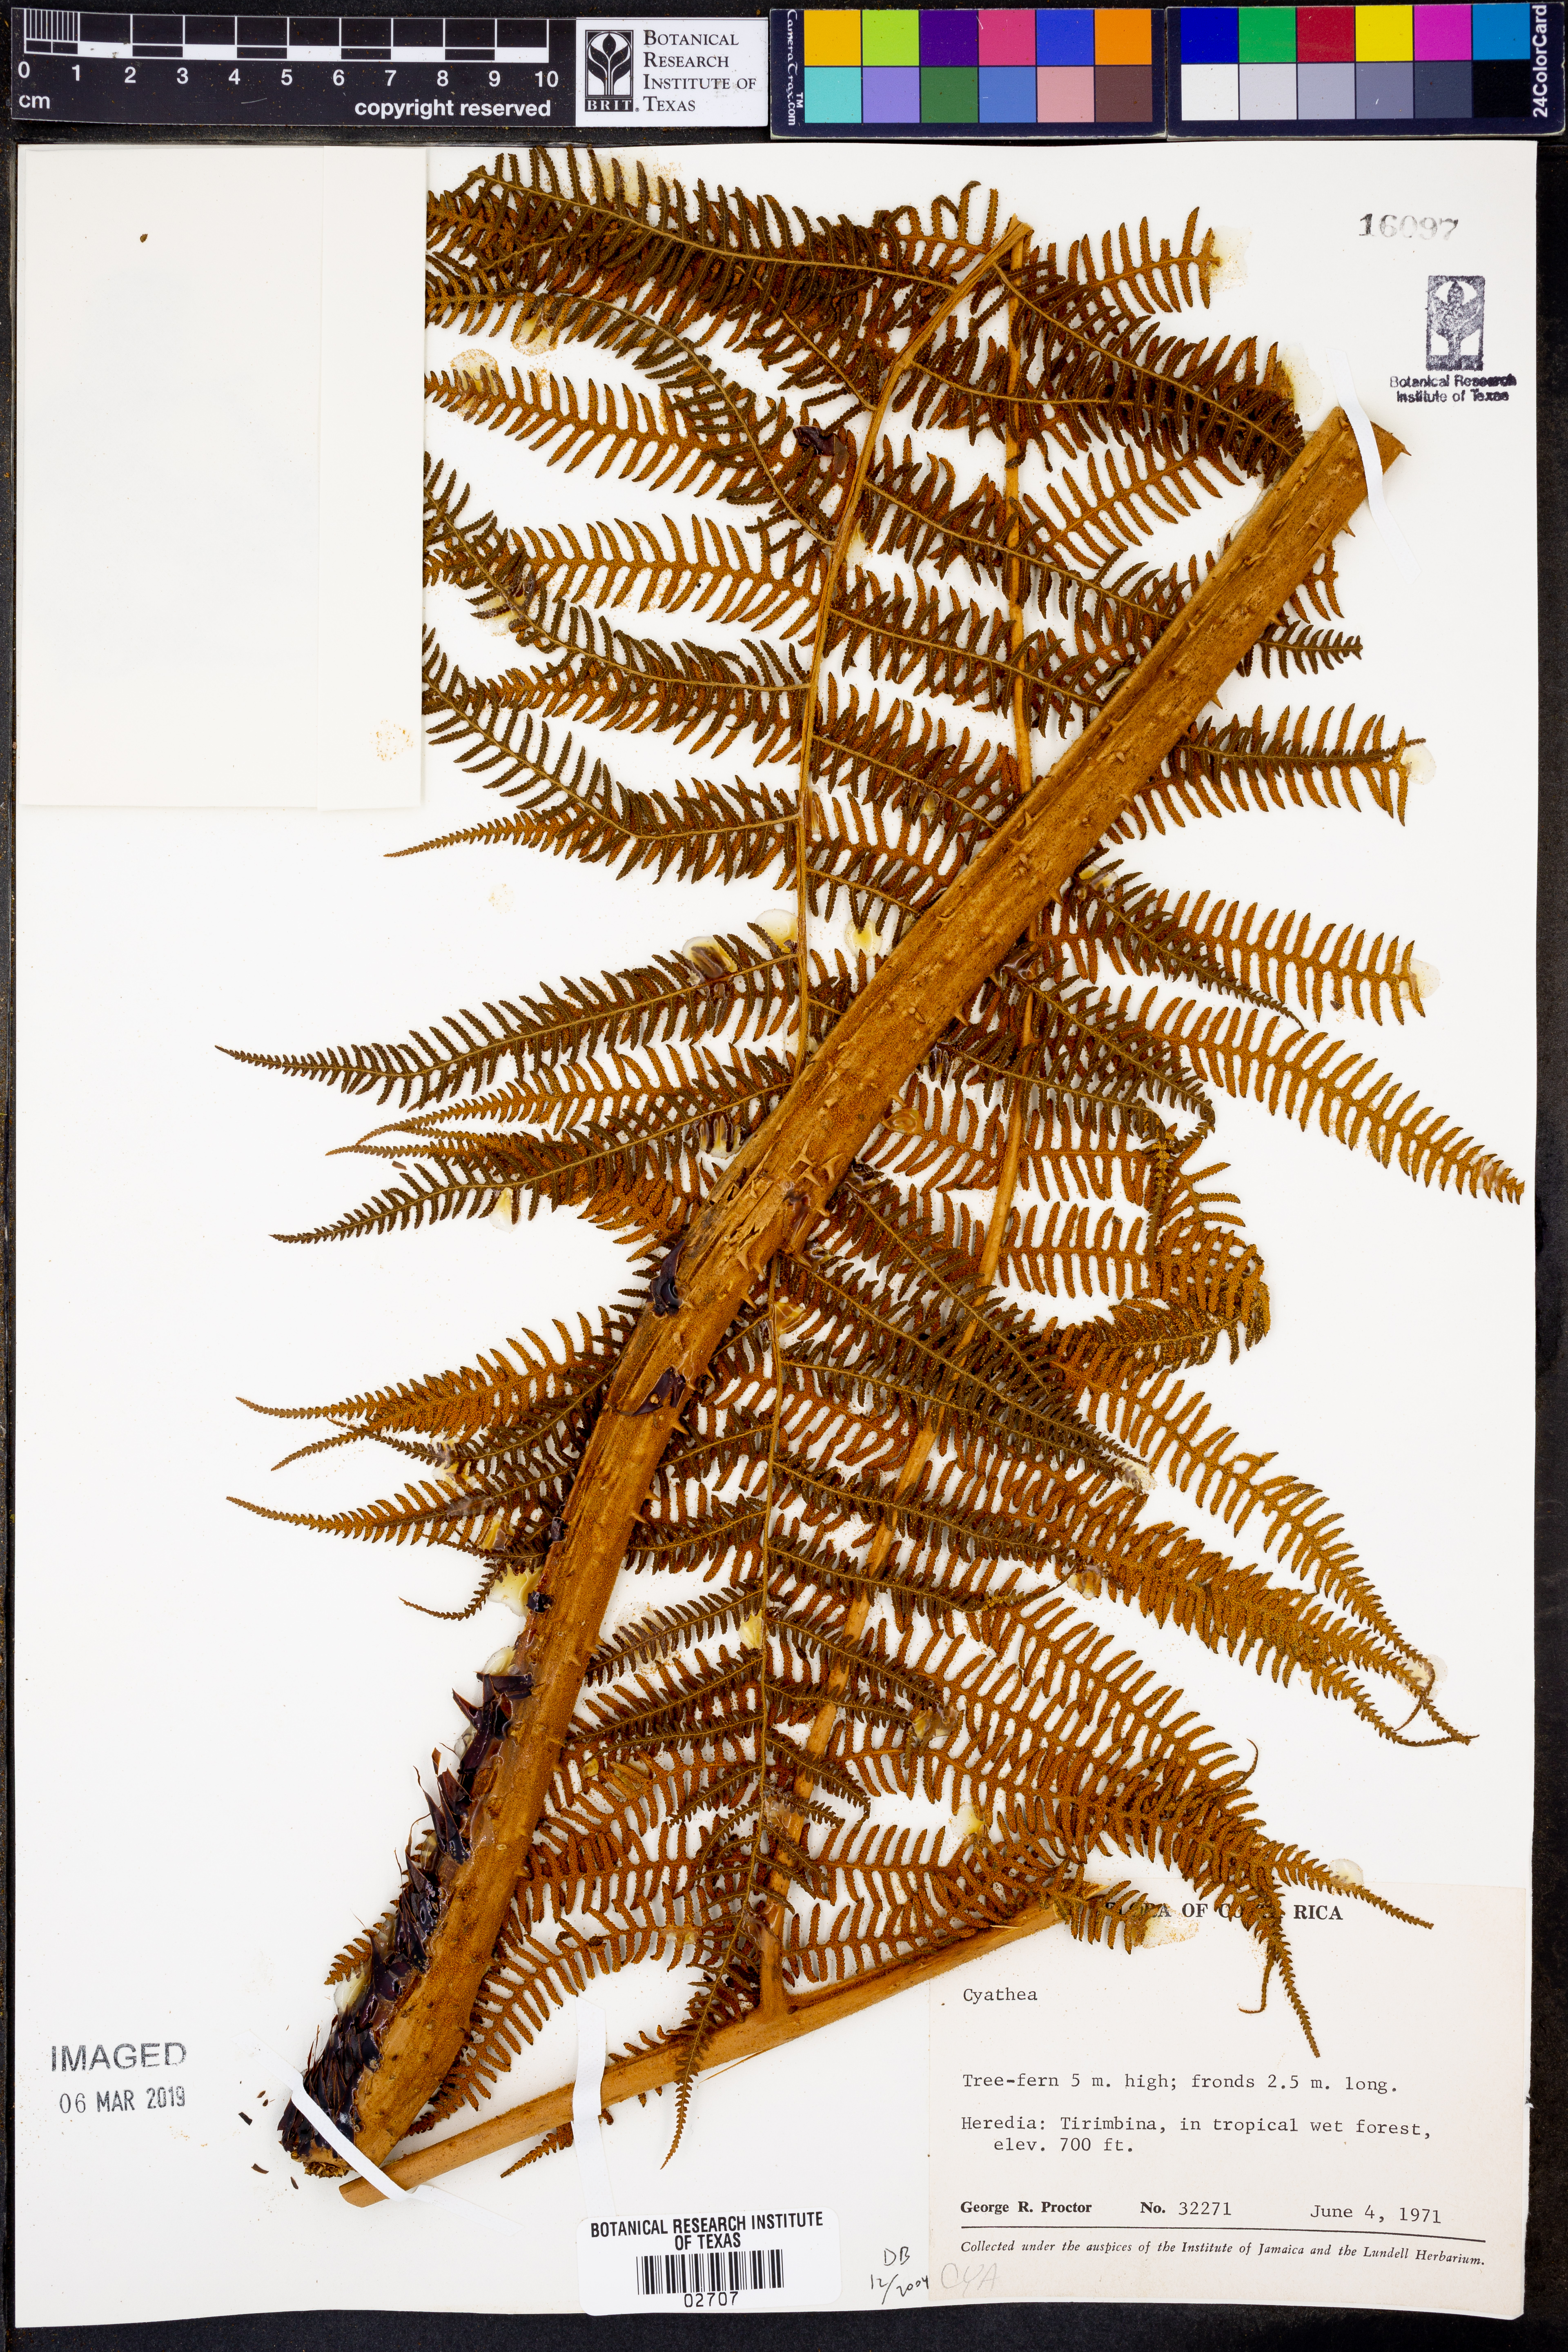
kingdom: Plantae
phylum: Tracheophyta
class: Polypodiopsida
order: Cyatheales
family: Cyatheaceae
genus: Cyathea
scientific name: Cyathea
